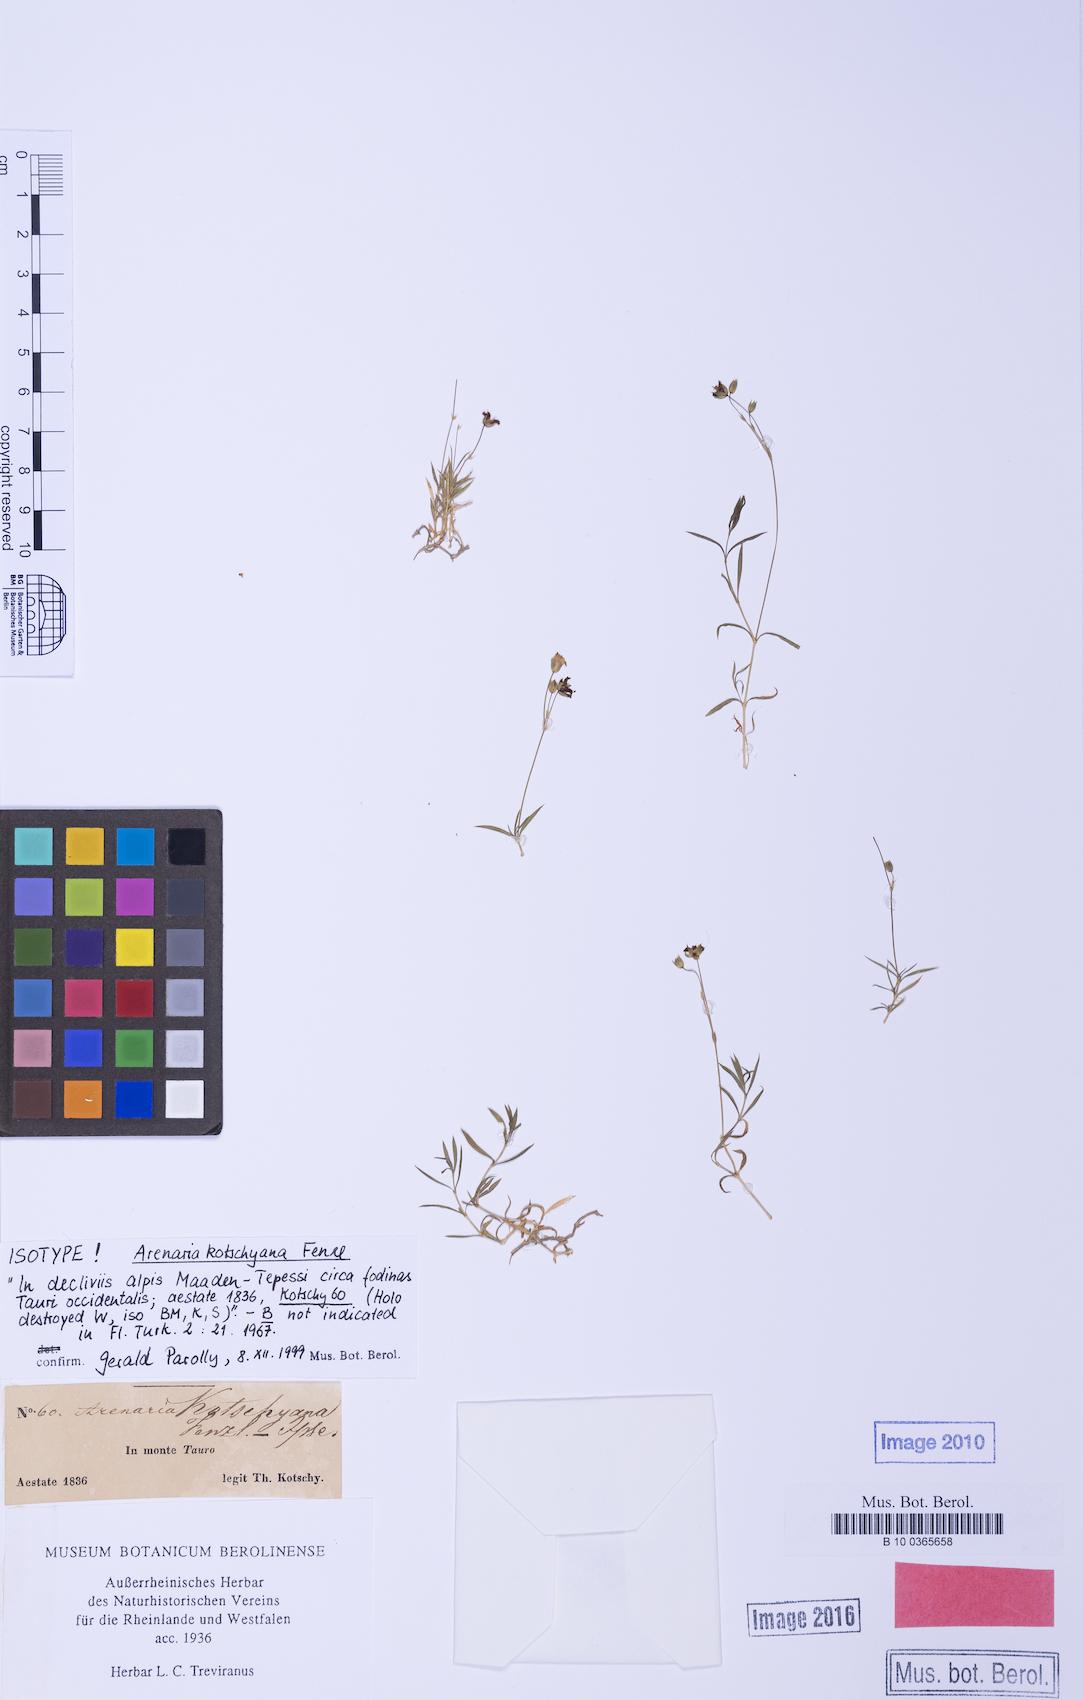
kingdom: Plantae
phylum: Tracheophyta
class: Magnoliopsida
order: Caryophyllales
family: Caryophyllaceae
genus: Arenaria
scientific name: Arenaria kotschyana
